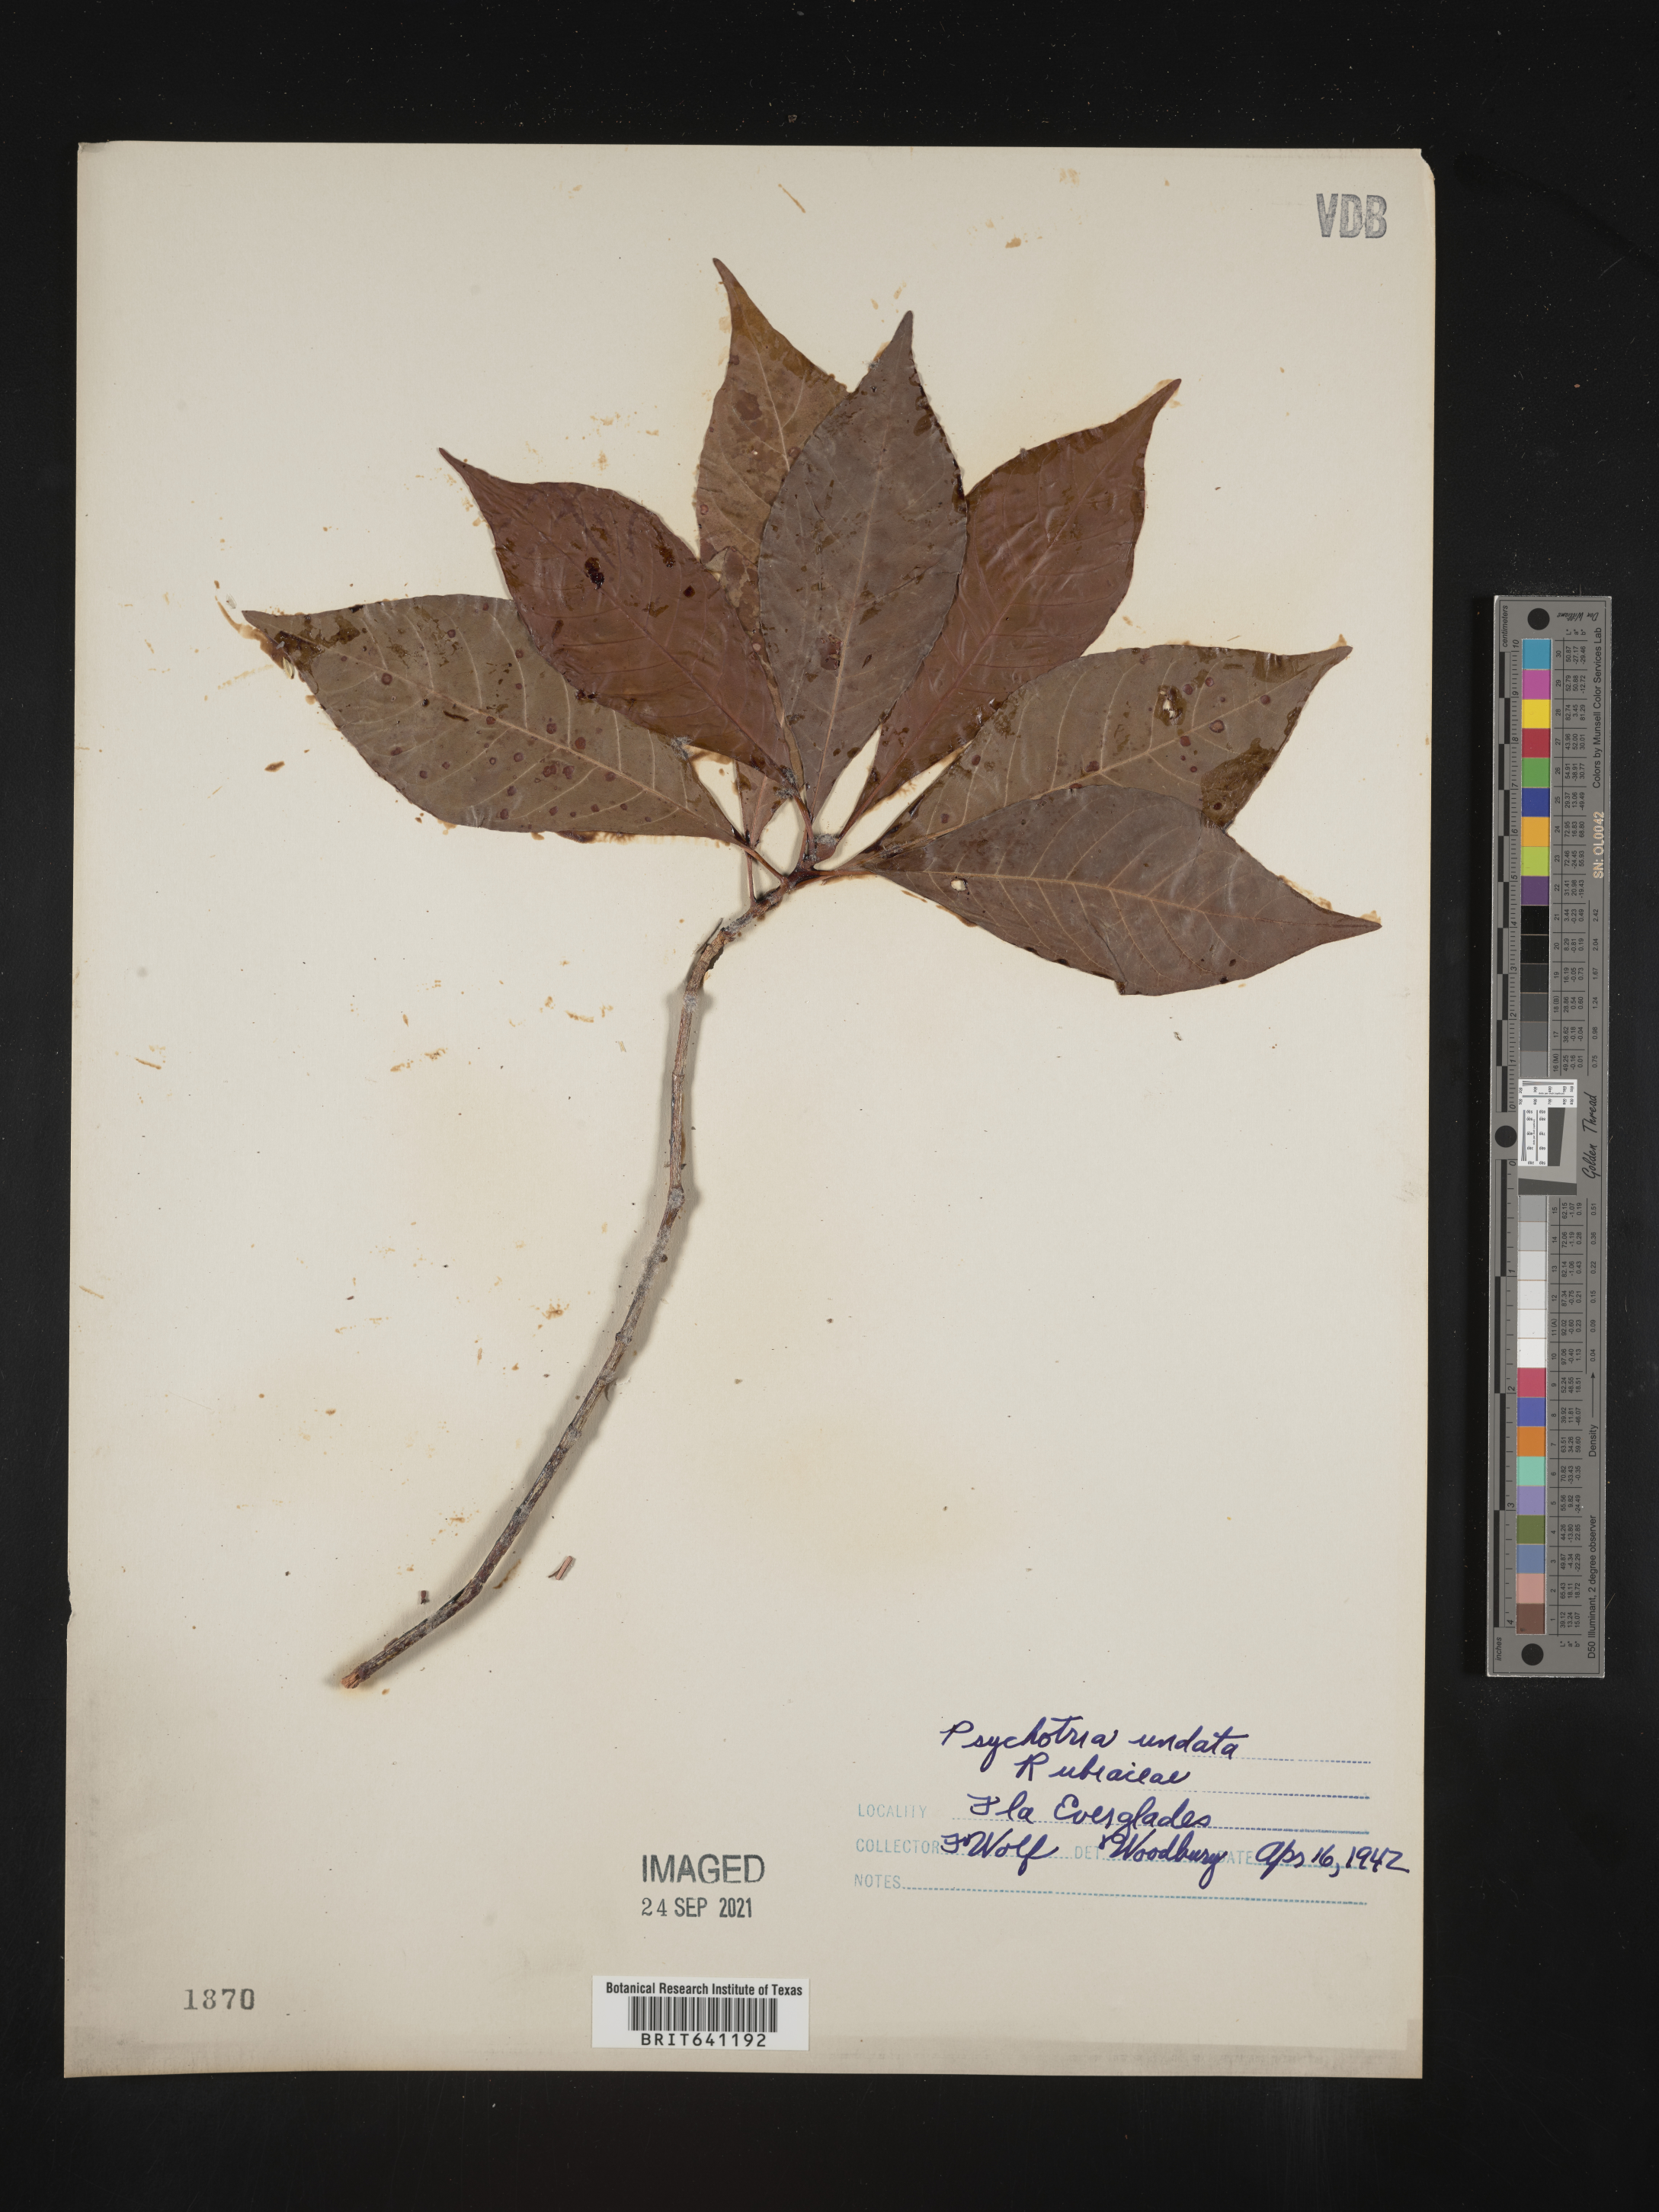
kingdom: Plantae
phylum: Tracheophyta
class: Magnoliopsida
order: Gentianales
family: Rubiaceae
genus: Psychotria
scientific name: Psychotria nervosa
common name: Bastard cankerberry
